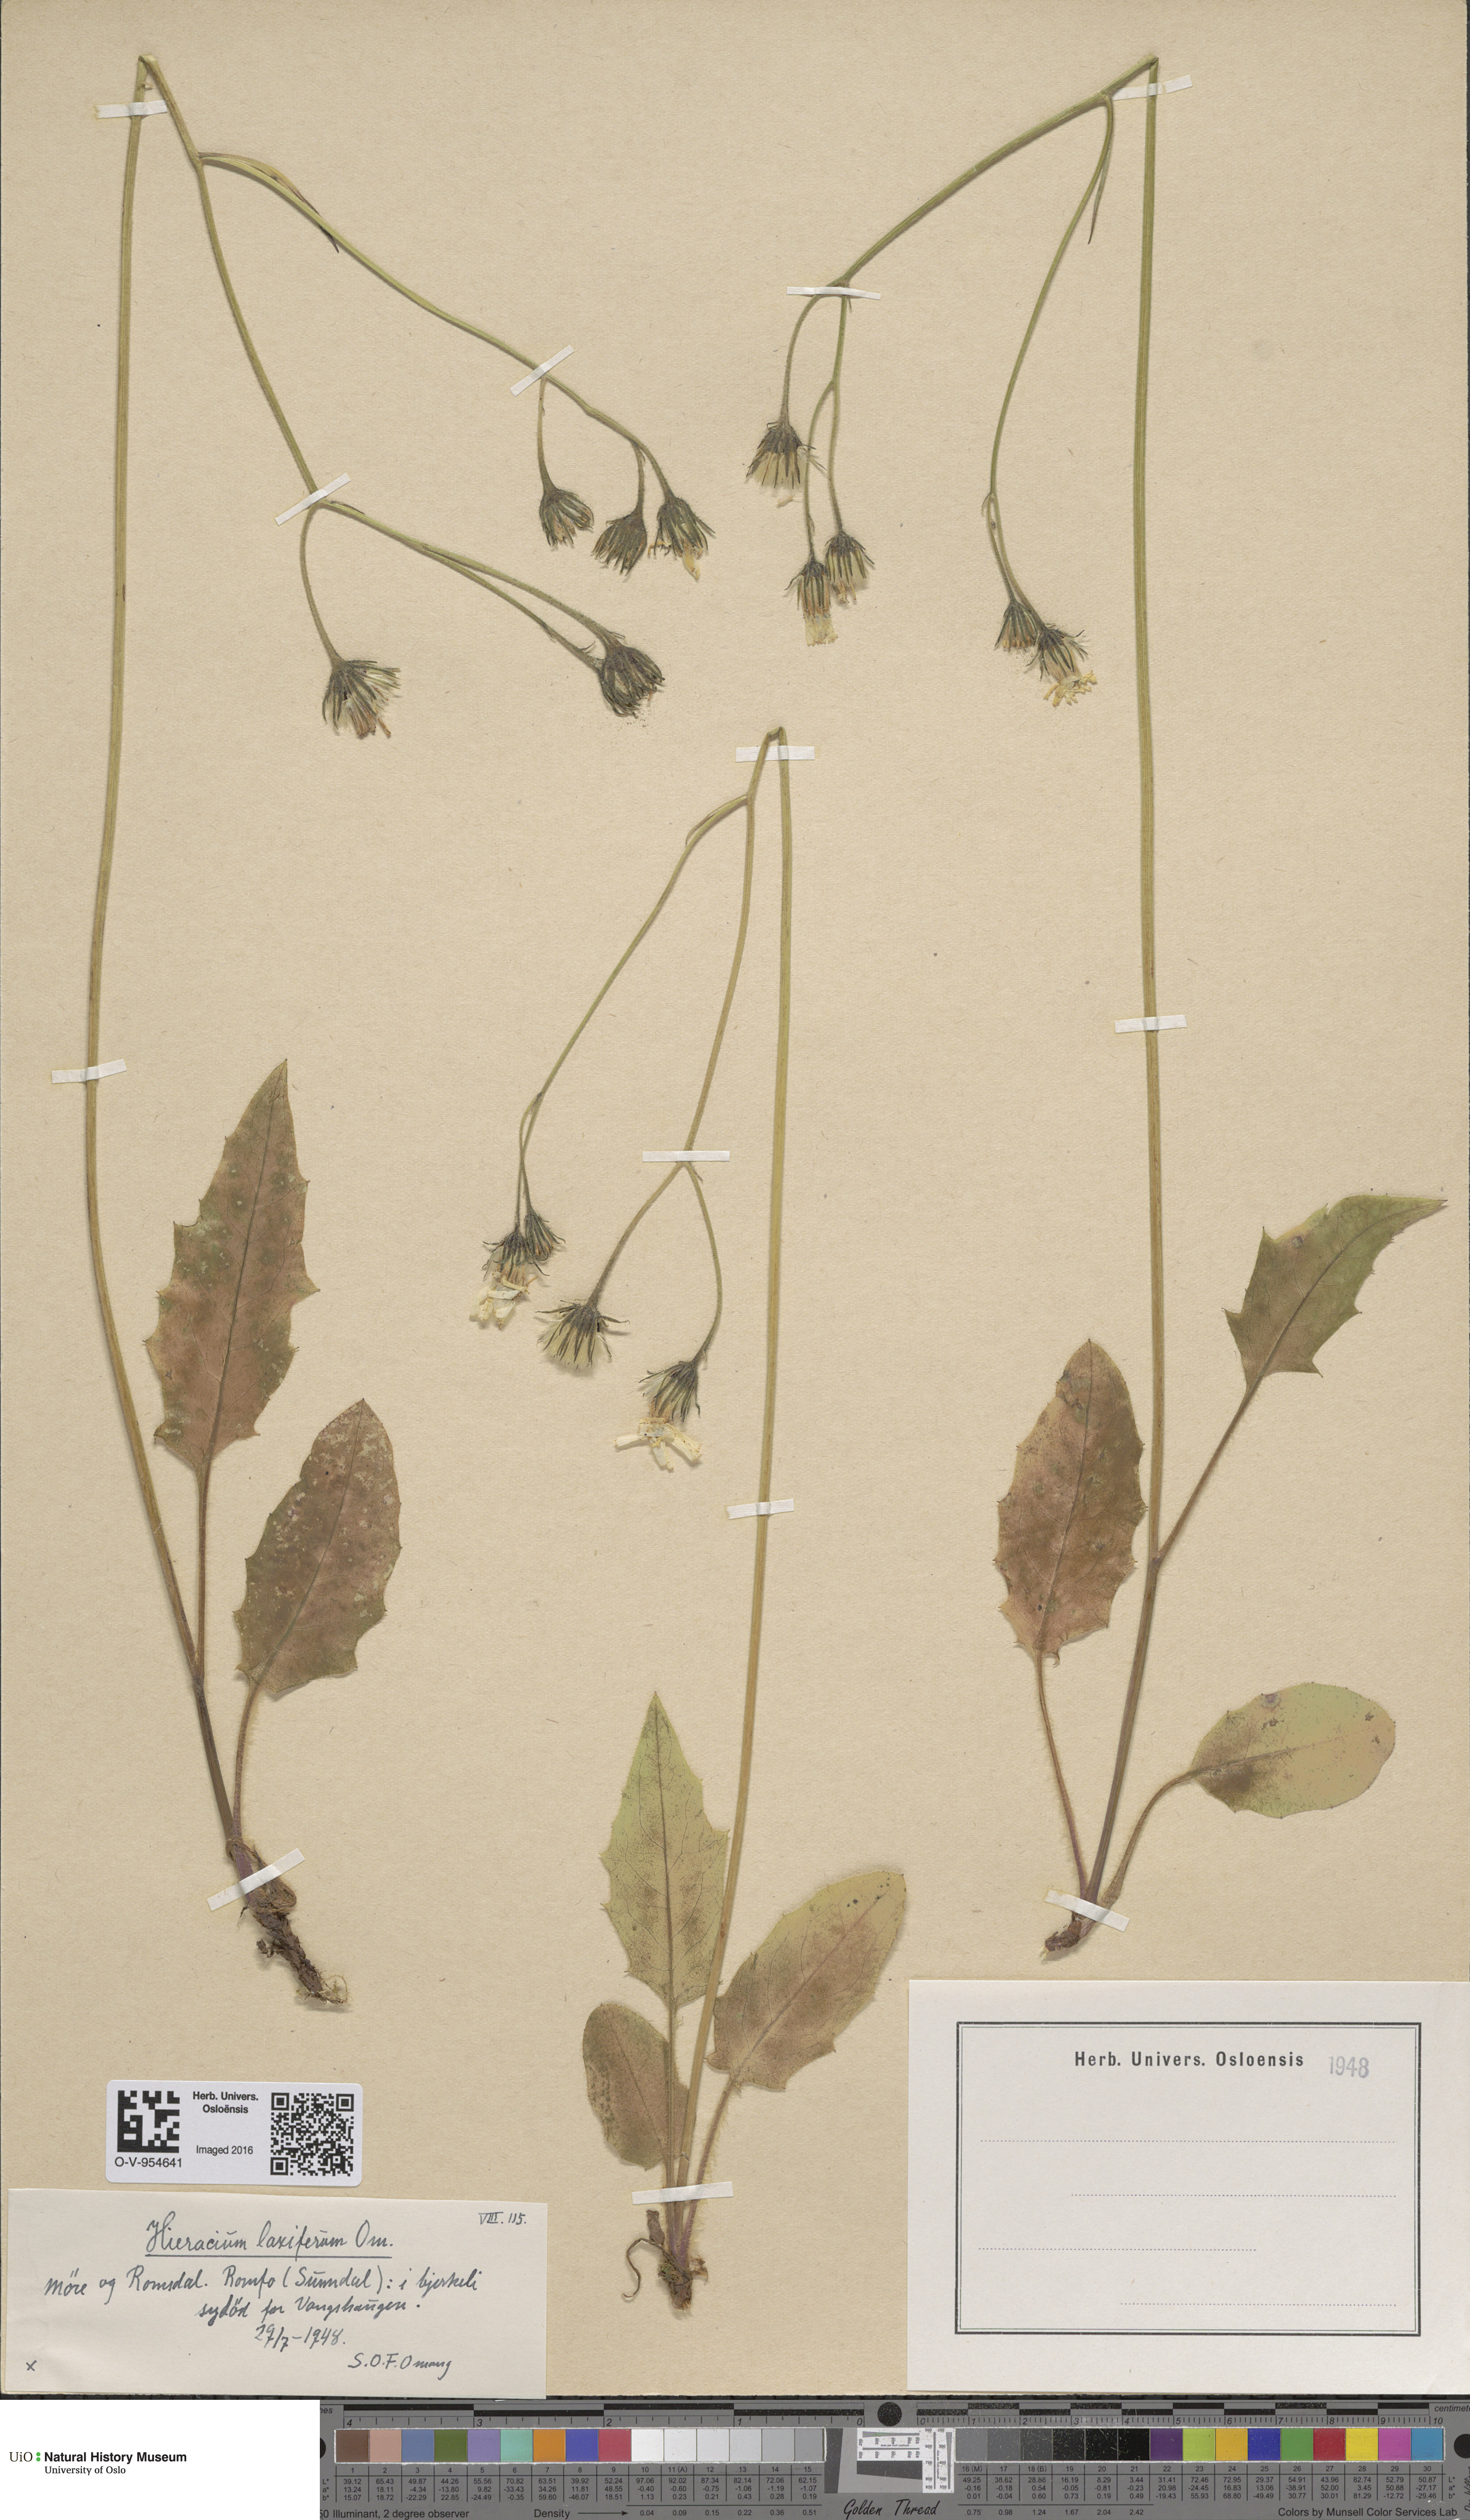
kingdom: Plantae
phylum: Tracheophyta
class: Magnoliopsida
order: Asterales
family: Asteraceae
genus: Hieracium
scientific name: Hieracium
